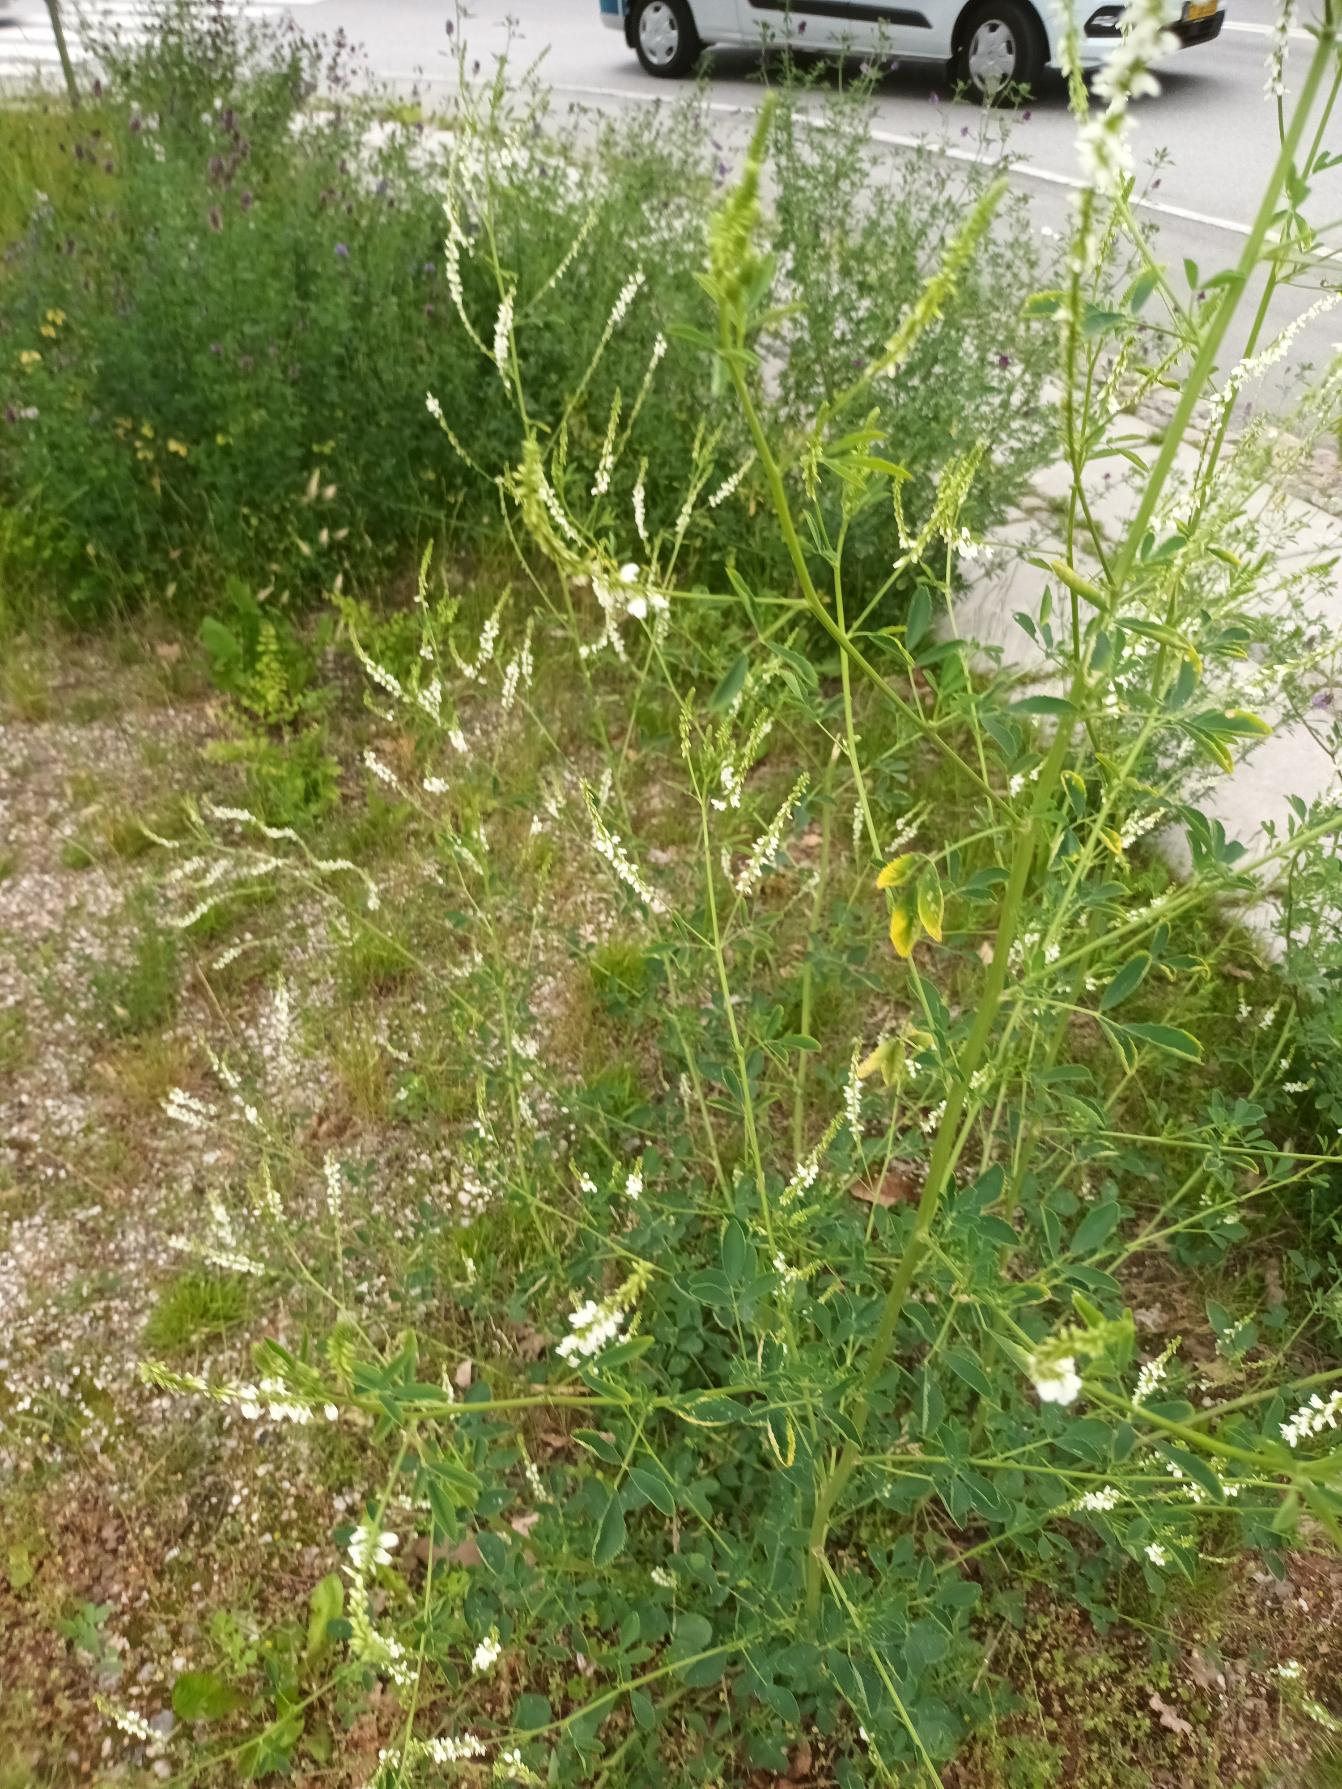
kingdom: Plantae
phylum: Tracheophyta
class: Magnoliopsida
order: Fabales
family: Fabaceae
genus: Melilotus
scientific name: Melilotus albus
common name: Hvid stenkløver
